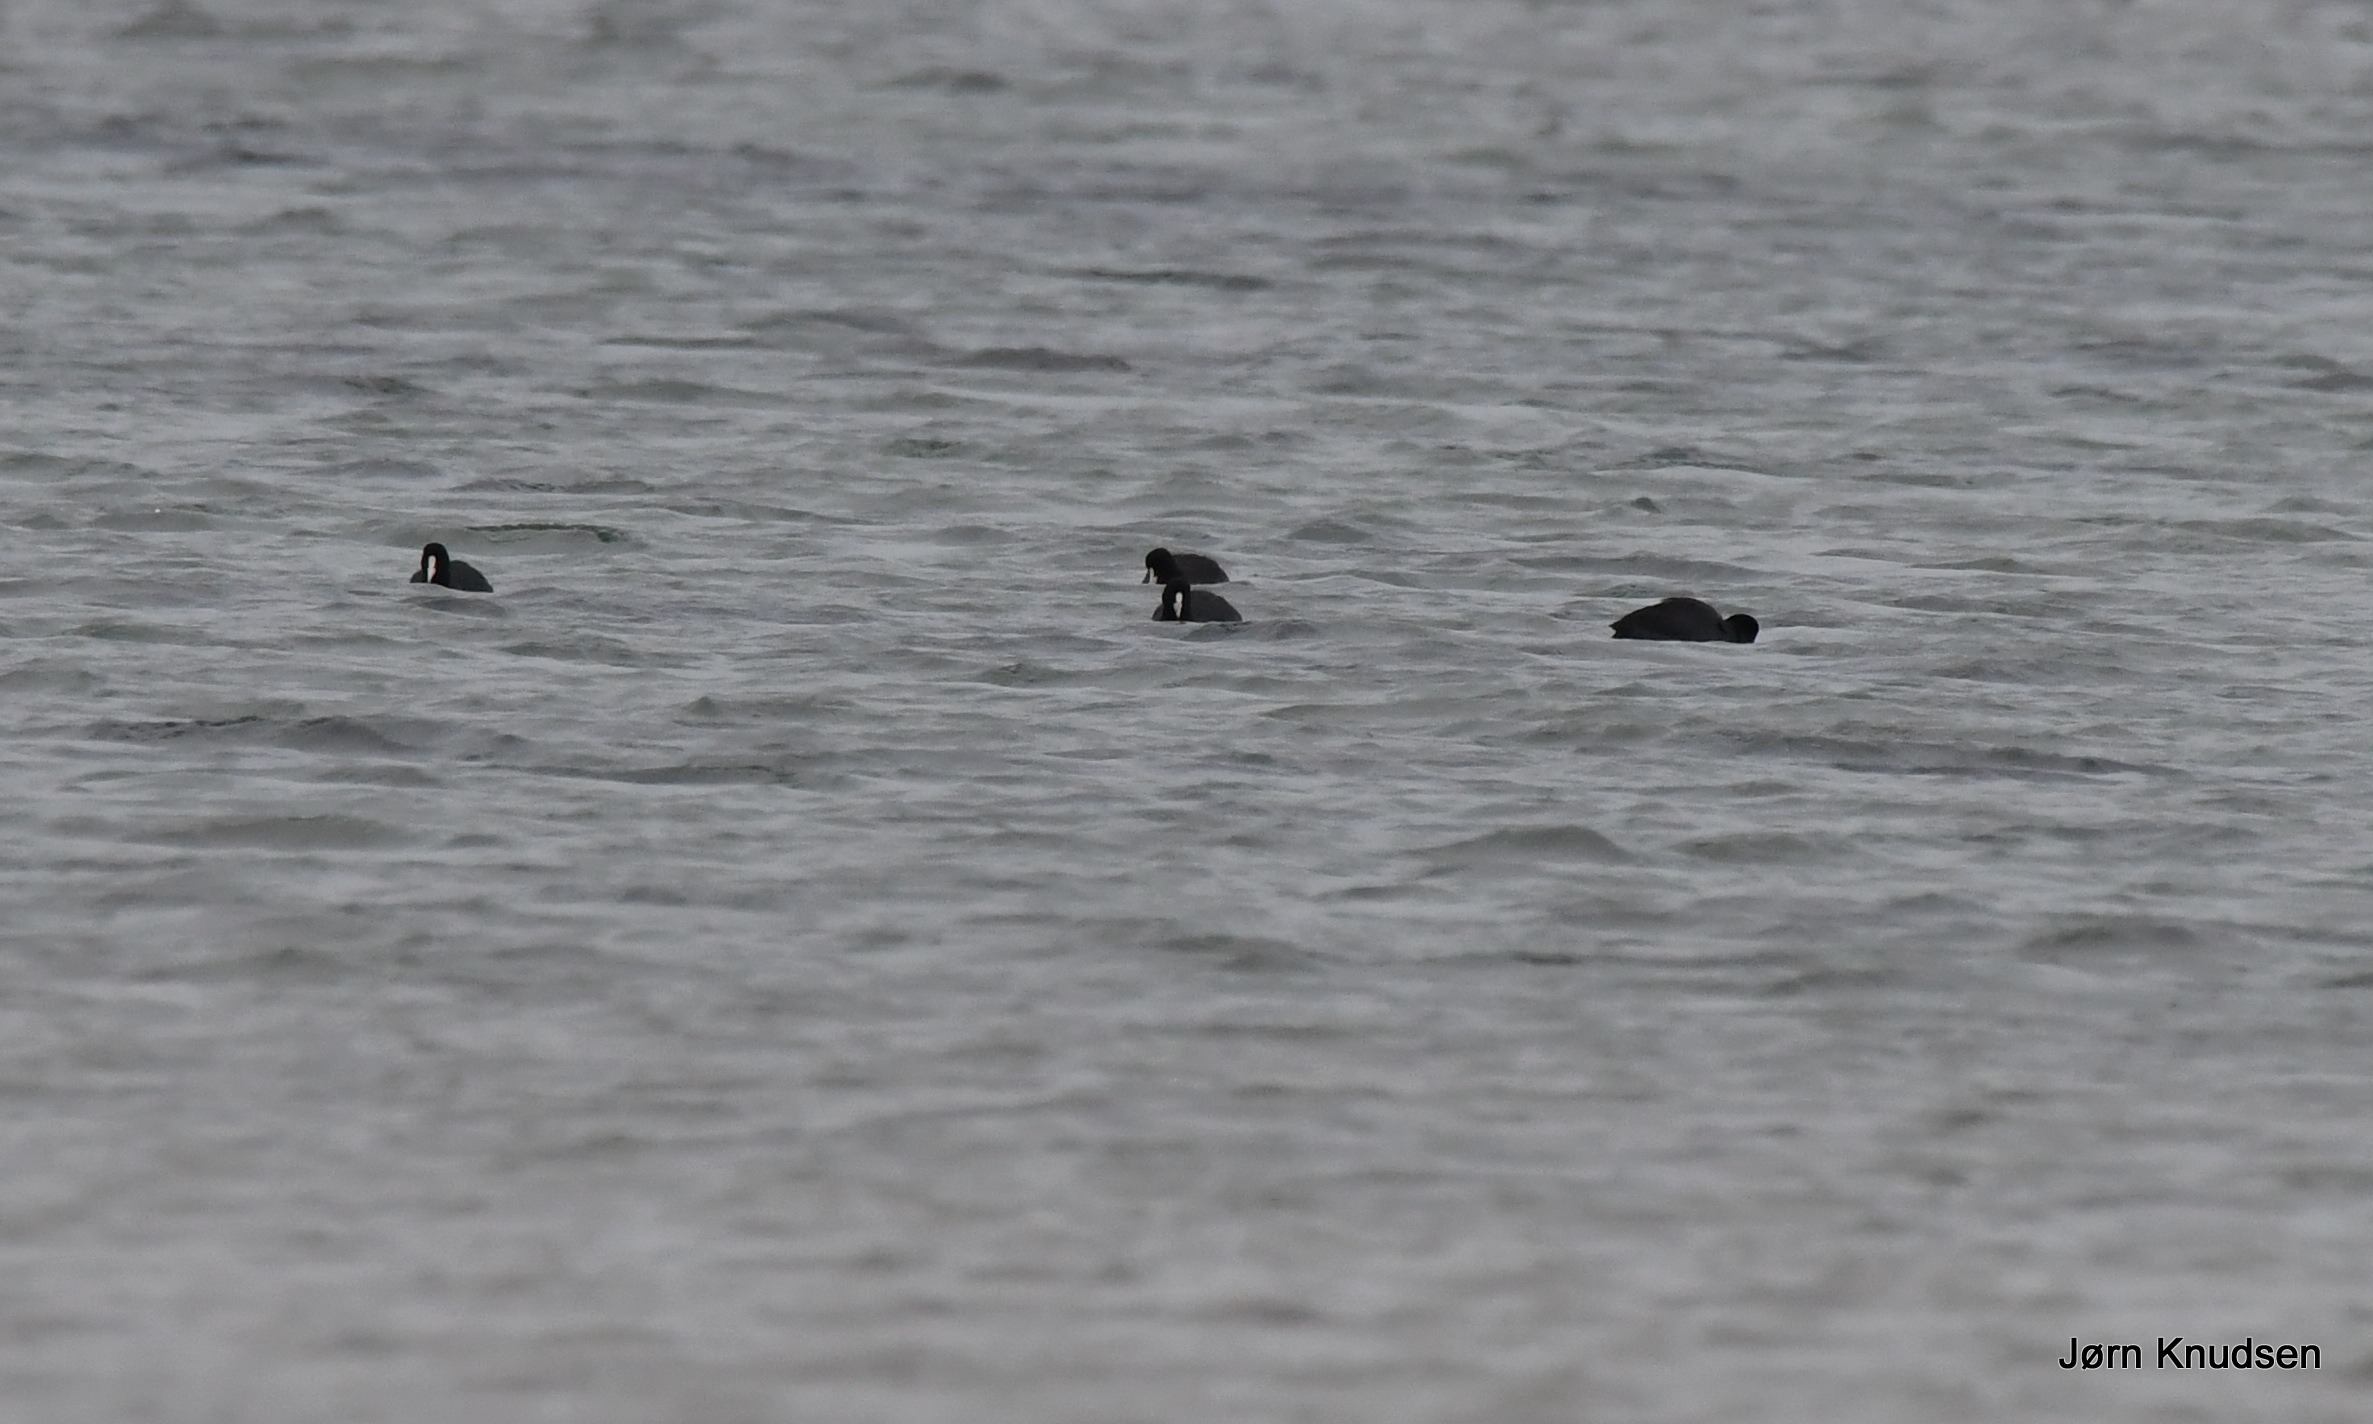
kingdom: Animalia
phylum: Chordata
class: Aves
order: Gruiformes
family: Rallidae
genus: Fulica
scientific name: Fulica atra
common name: Blishøne
